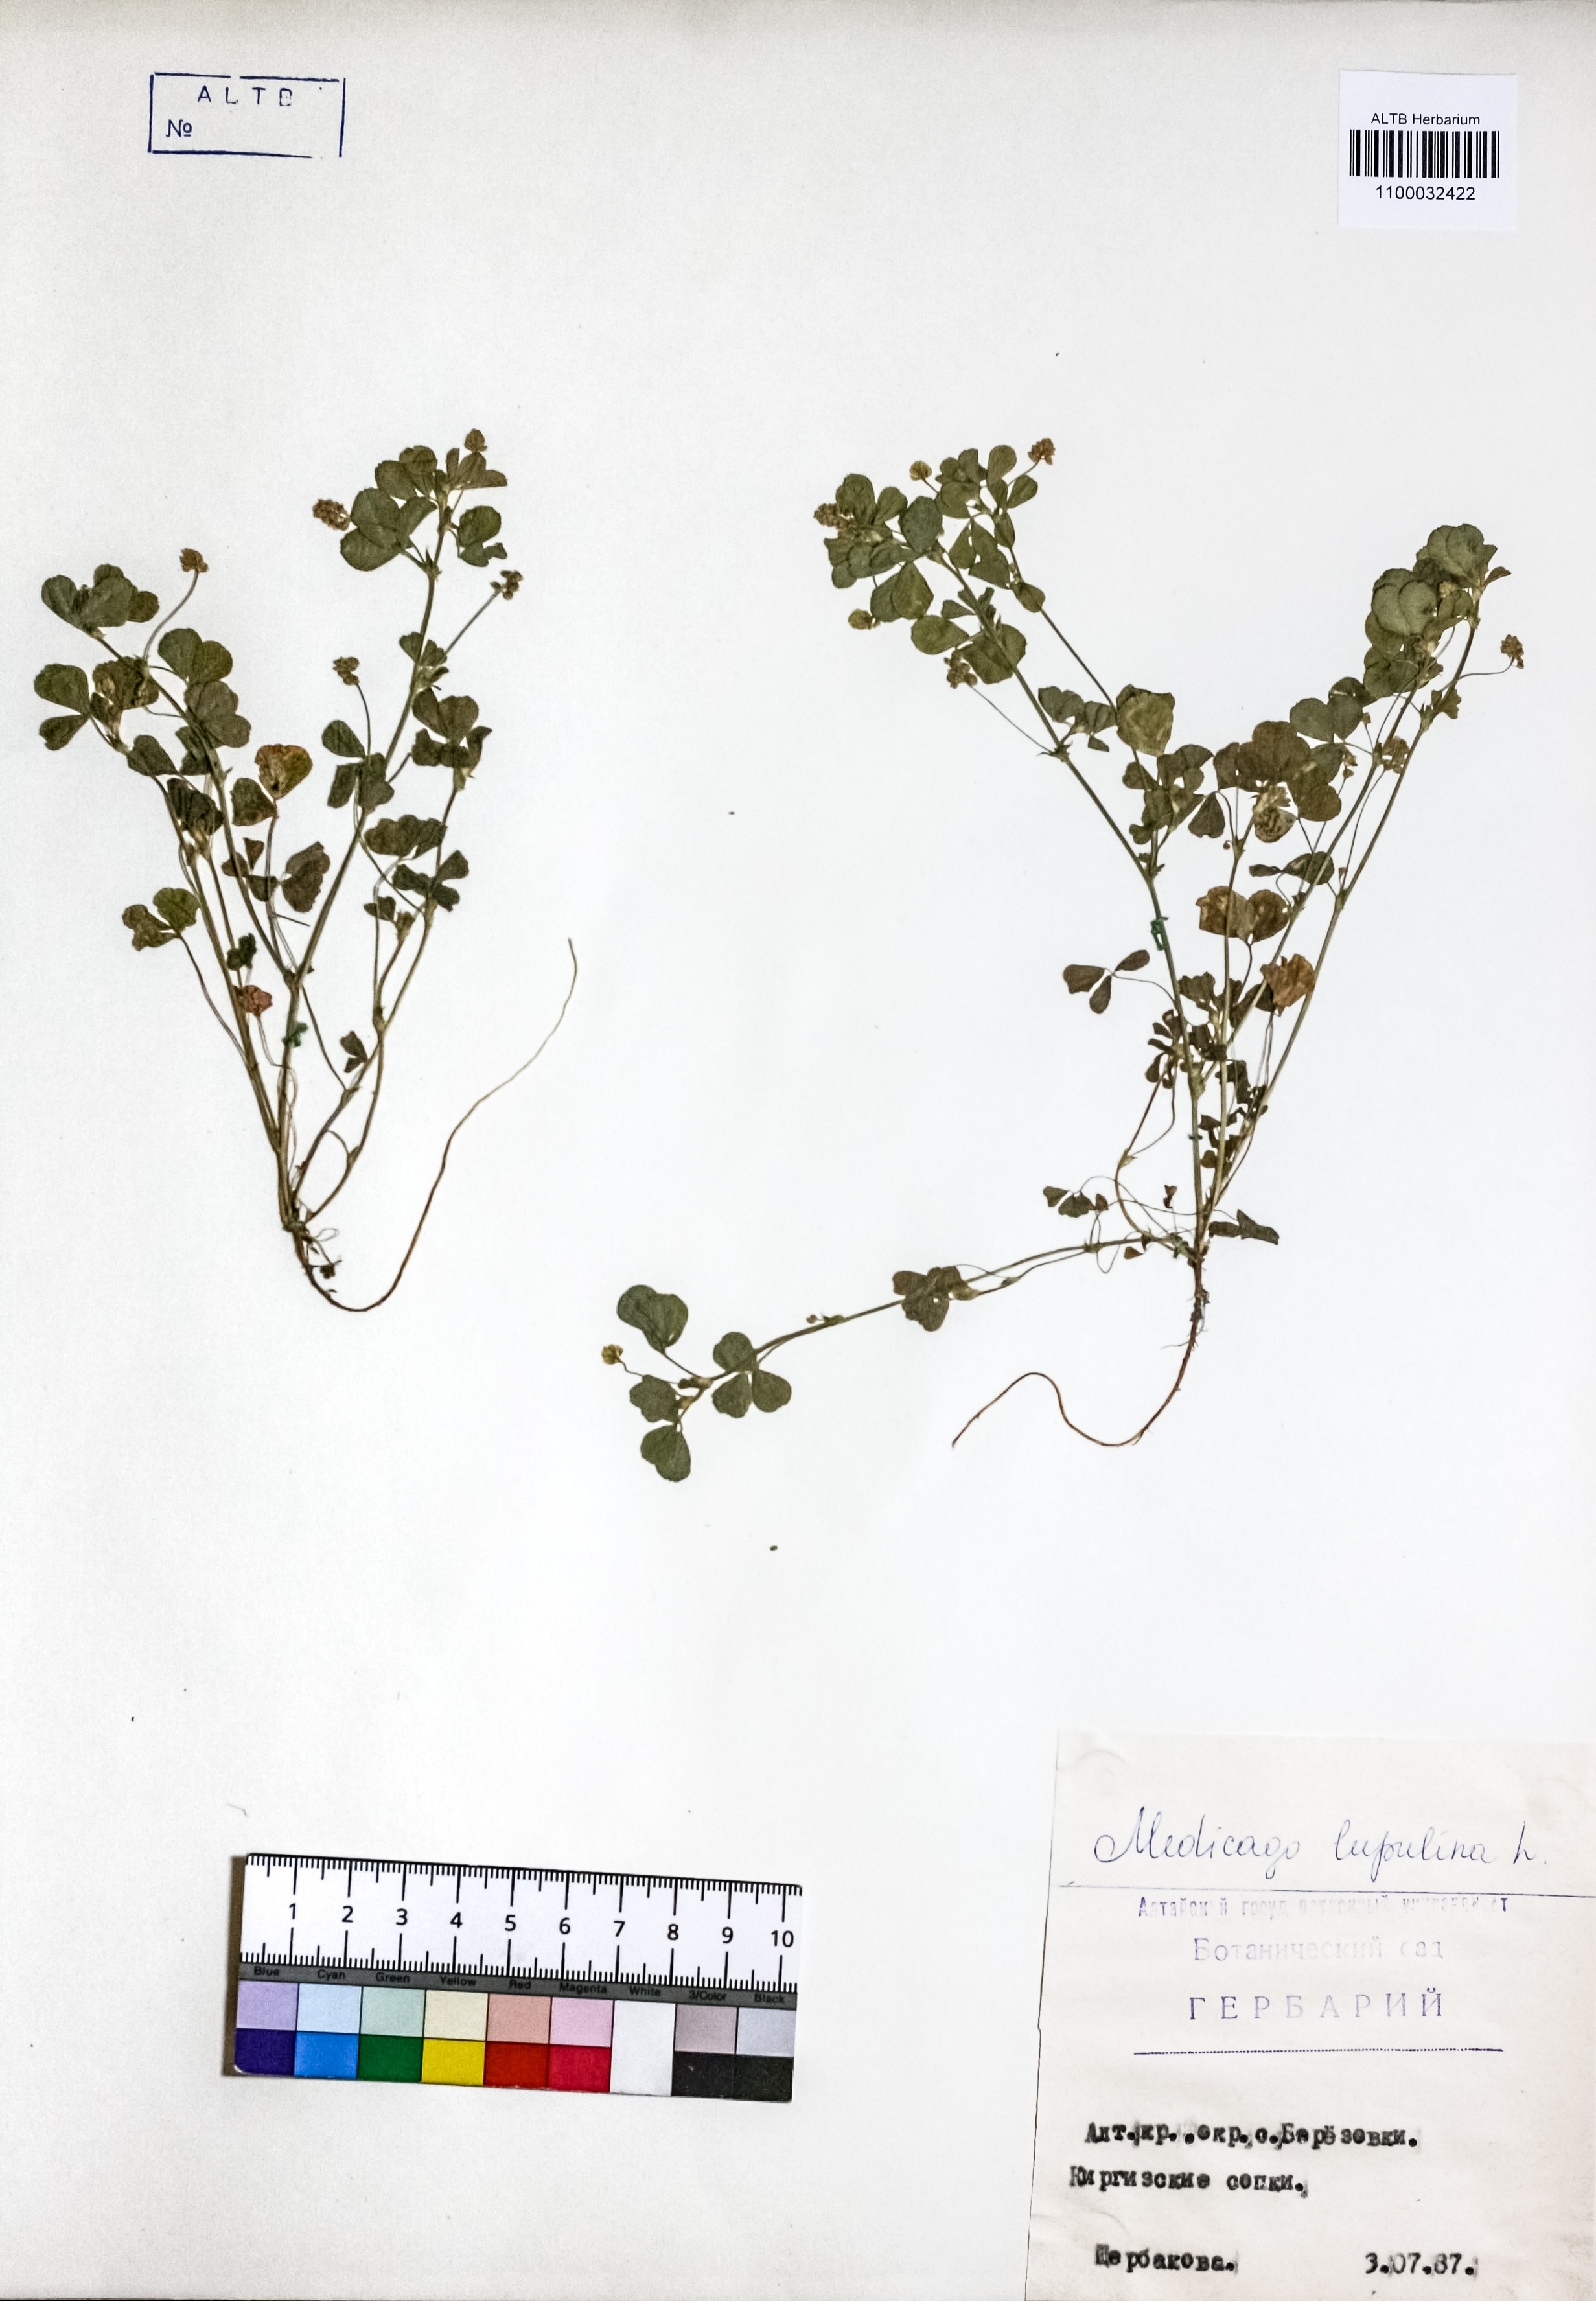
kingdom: Plantae
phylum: Tracheophyta
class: Magnoliopsida
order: Fabales
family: Fabaceae
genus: Medicago
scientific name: Medicago lupulina
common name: Black medick
